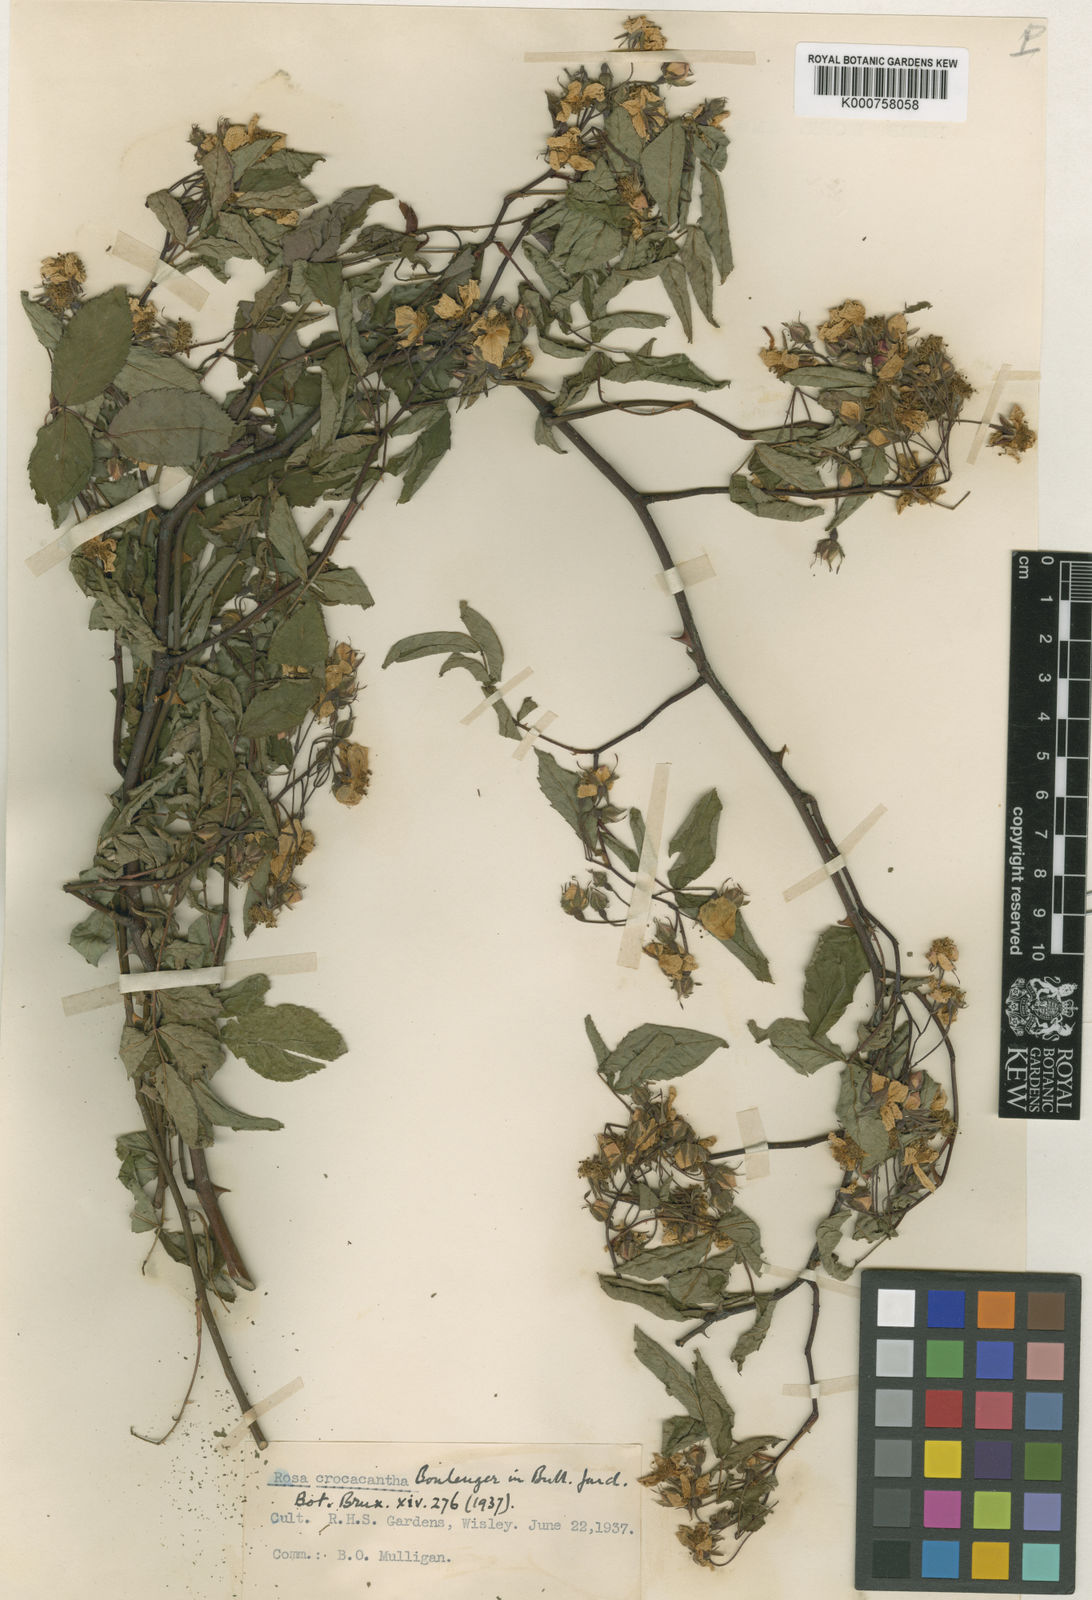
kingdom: Plantae
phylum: Tracheophyta
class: Magnoliopsida
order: Rosales
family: Rosaceae
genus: Rosa
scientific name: Rosa crocacantha
